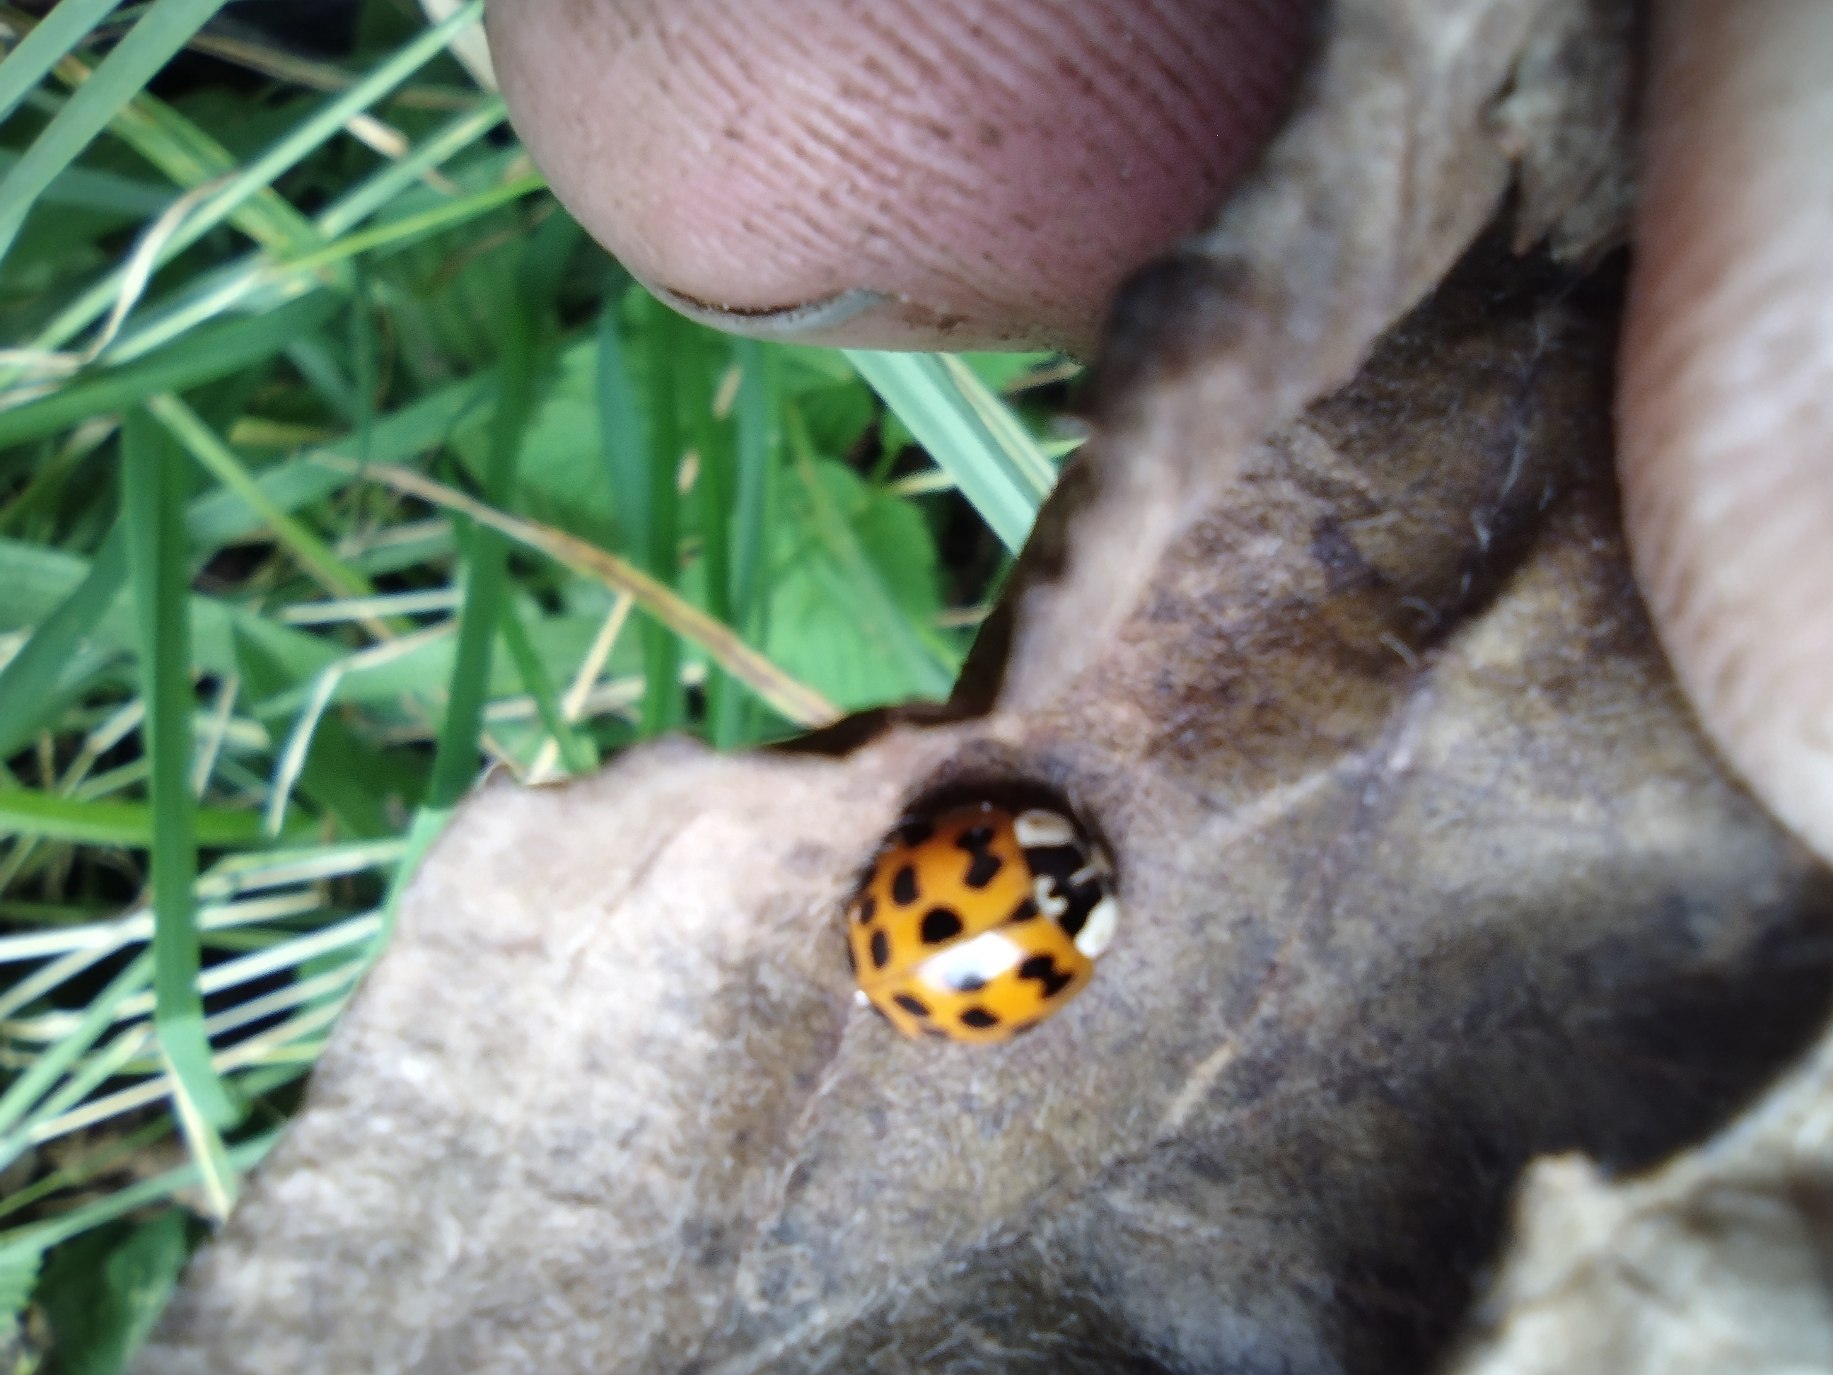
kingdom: Animalia
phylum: Arthropoda
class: Insecta
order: Coleoptera
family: Coccinellidae
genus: Harmonia
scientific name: Harmonia axyridis
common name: Harlekinmariehøne
